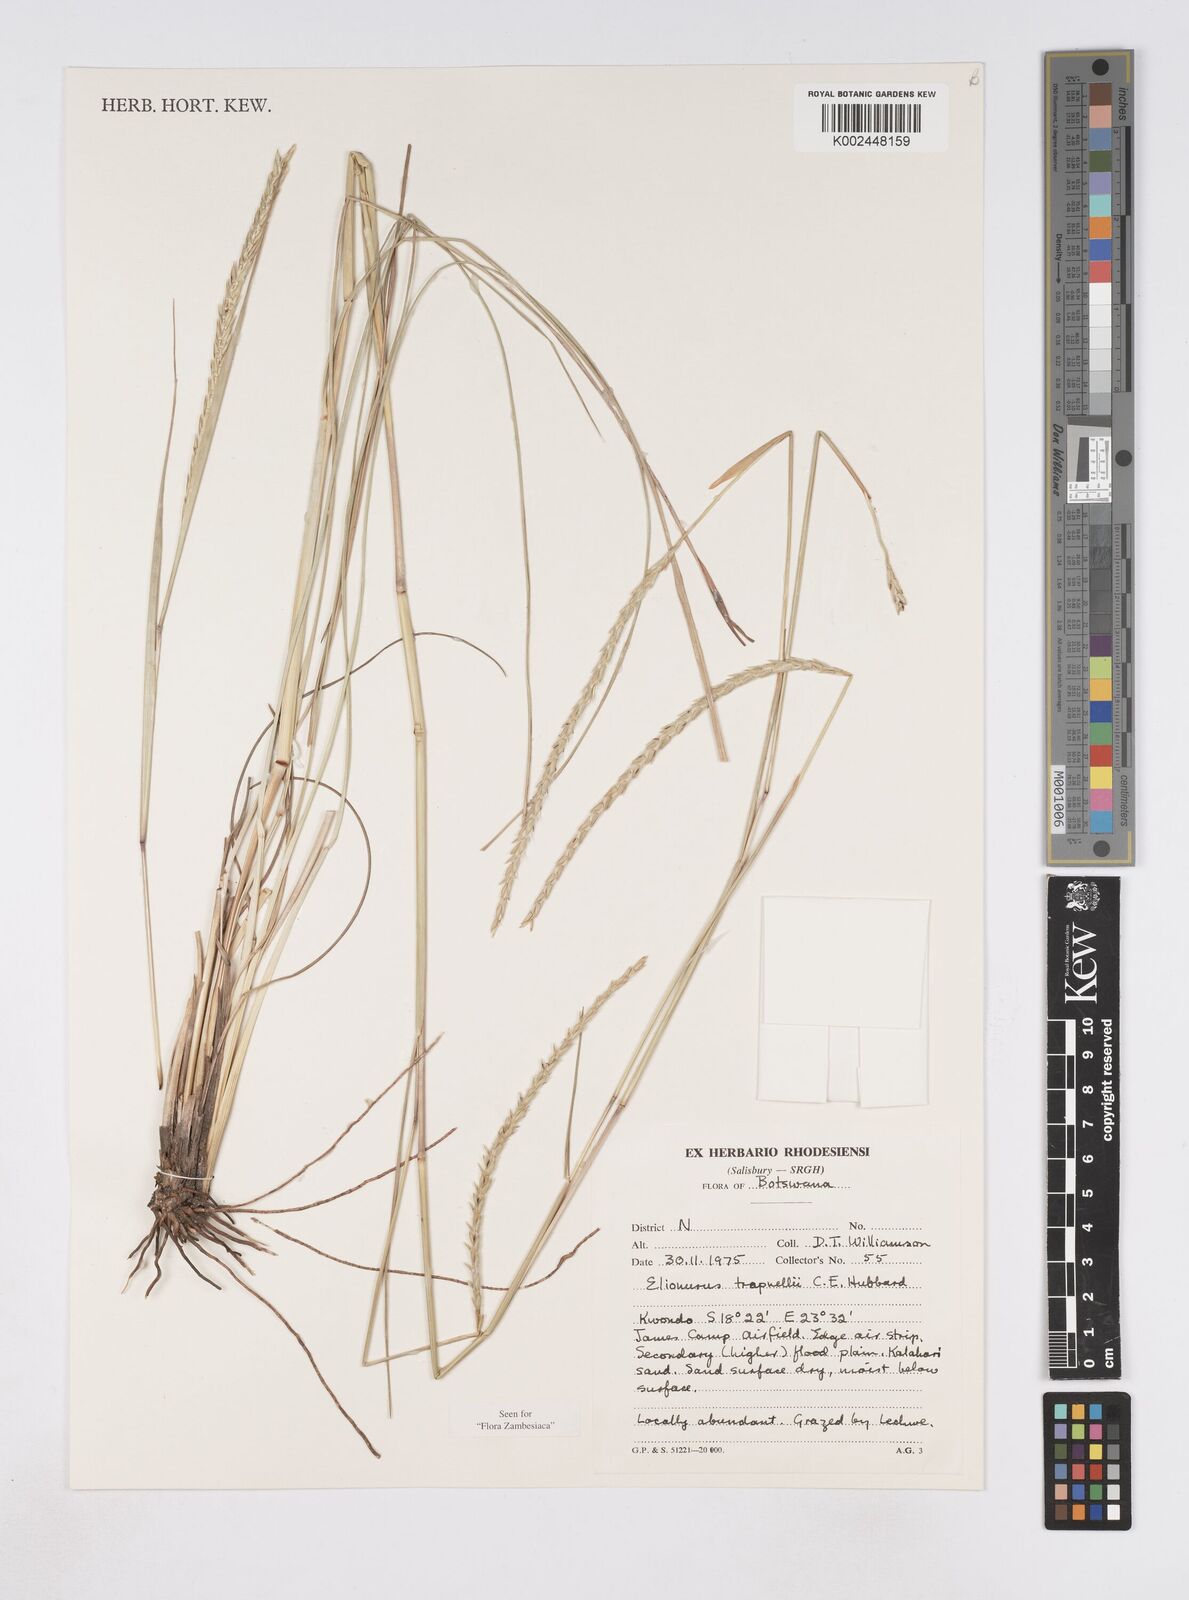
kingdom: Plantae
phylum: Tracheophyta
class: Liliopsida
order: Poales
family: Poaceae
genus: Elionurus
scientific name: Elionurus tripsacoides
